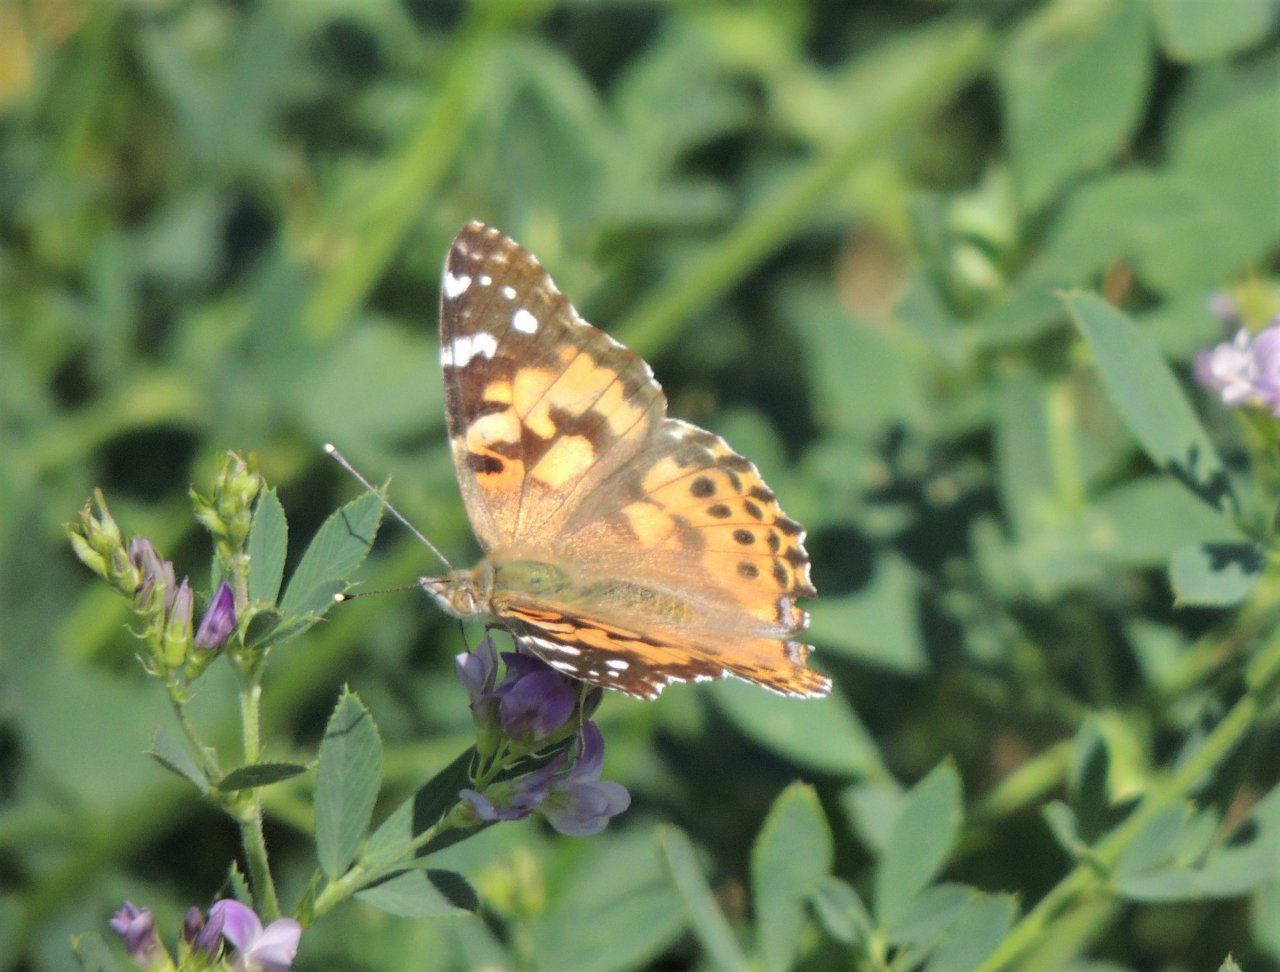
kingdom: Animalia
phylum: Arthropoda
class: Insecta
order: Lepidoptera
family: Nymphalidae
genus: Vanessa
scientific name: Vanessa cardui
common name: Painted Lady
